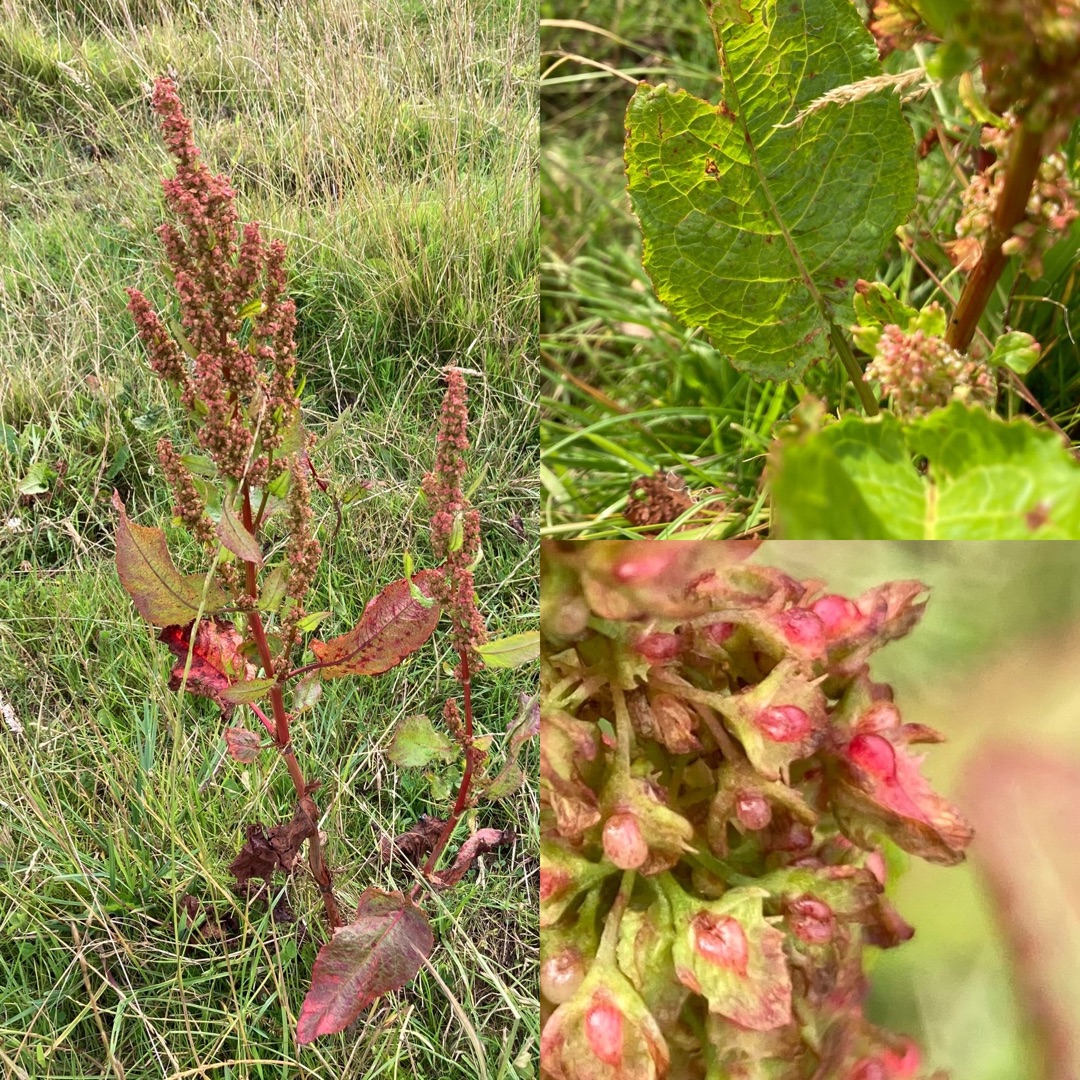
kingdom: Plantae
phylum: Tracheophyta
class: Magnoliopsida
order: Caryophyllales
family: Polygonaceae
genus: Rumex
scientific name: Rumex obtusifolius
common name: Butbladet skræppe
